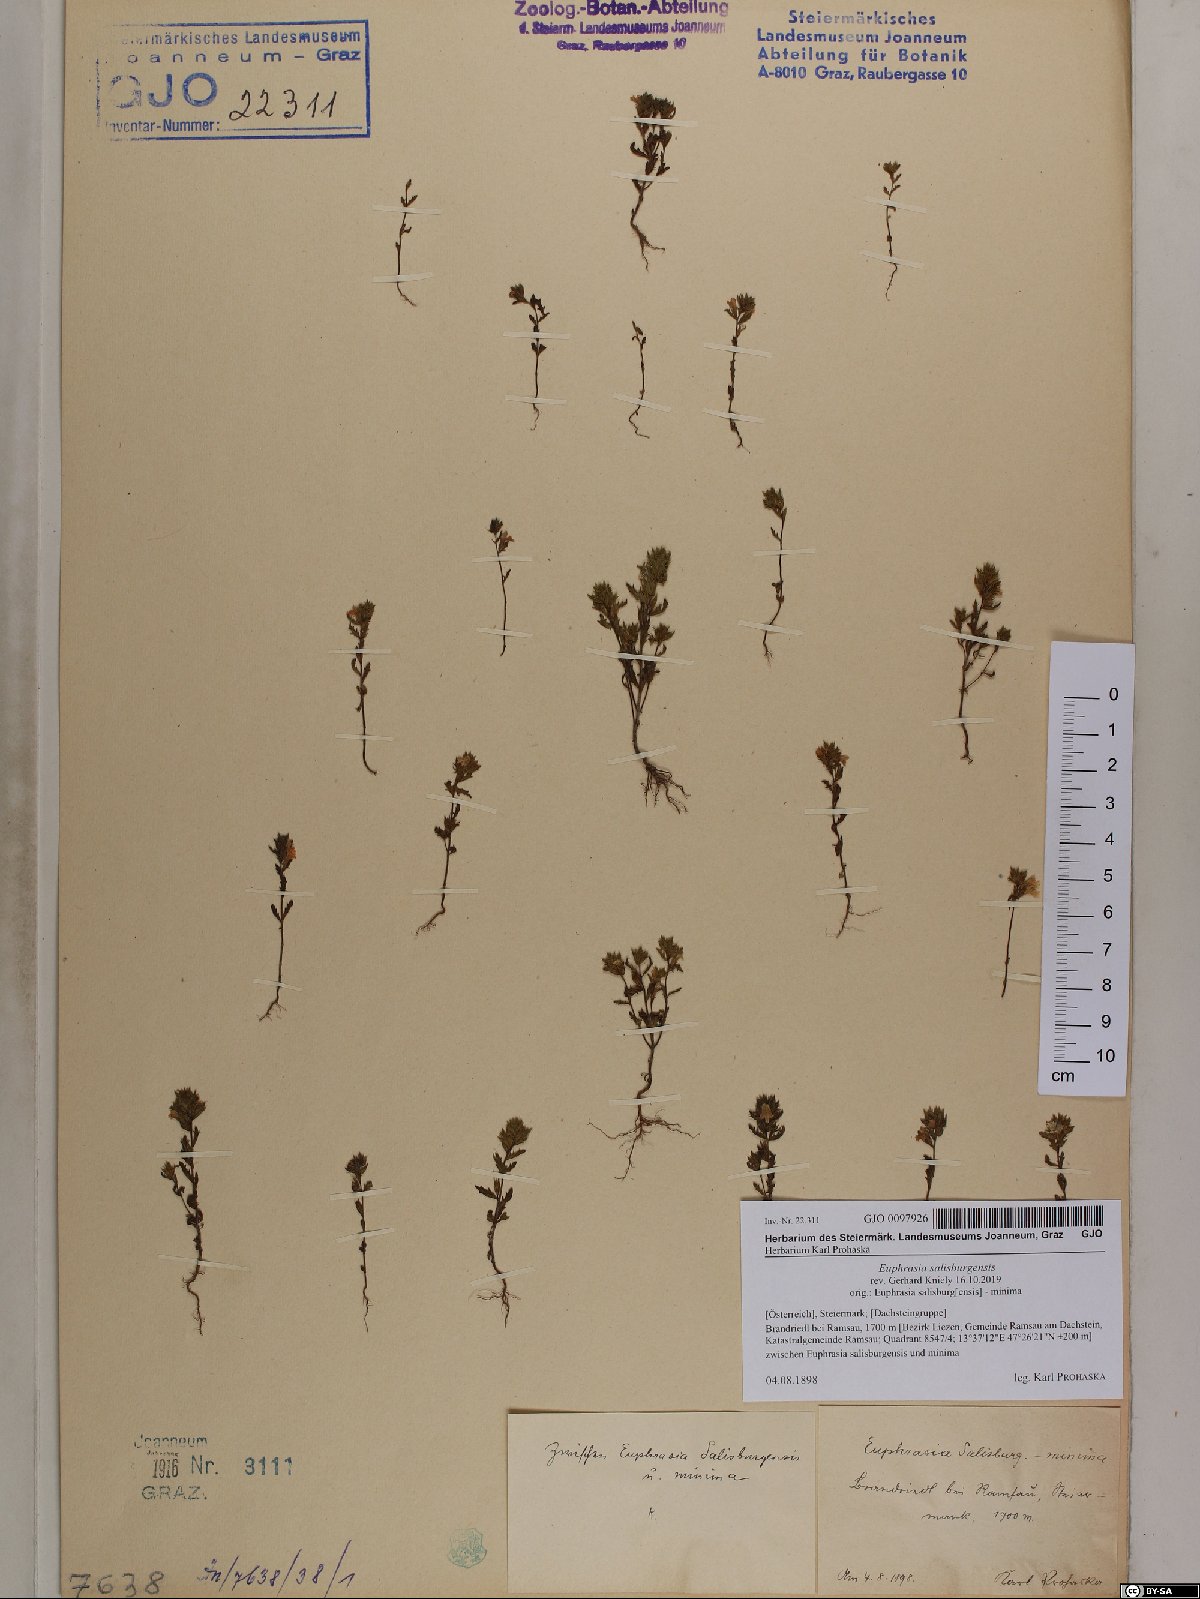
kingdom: Plantae
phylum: Tracheophyta
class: Magnoliopsida
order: Lamiales
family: Orobanchaceae
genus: Euphrasia
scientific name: Euphrasia salisburgensis
